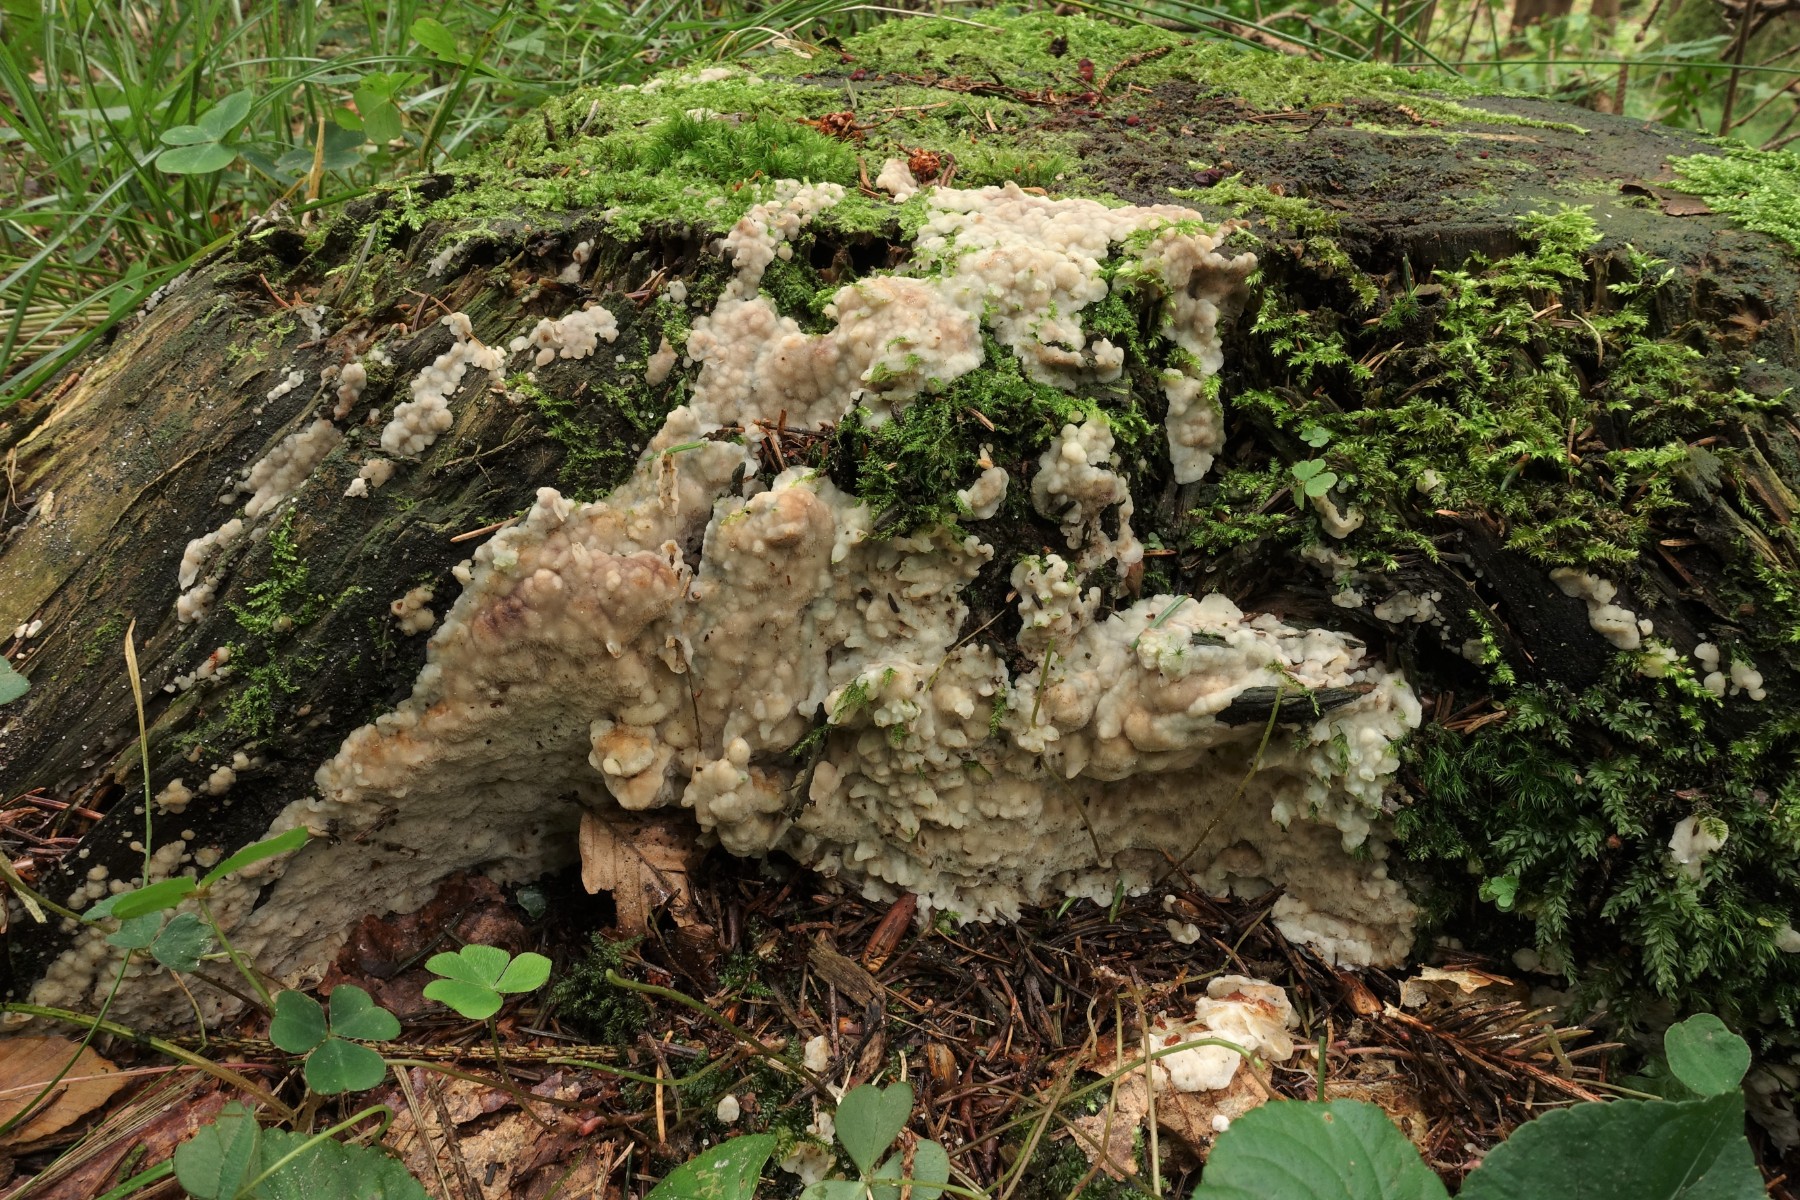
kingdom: Fungi
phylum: Basidiomycota
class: Agaricomycetes
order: Polyporales
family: Meruliaceae
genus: Physisporinus
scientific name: Physisporinus vitreus
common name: mastesvamp
